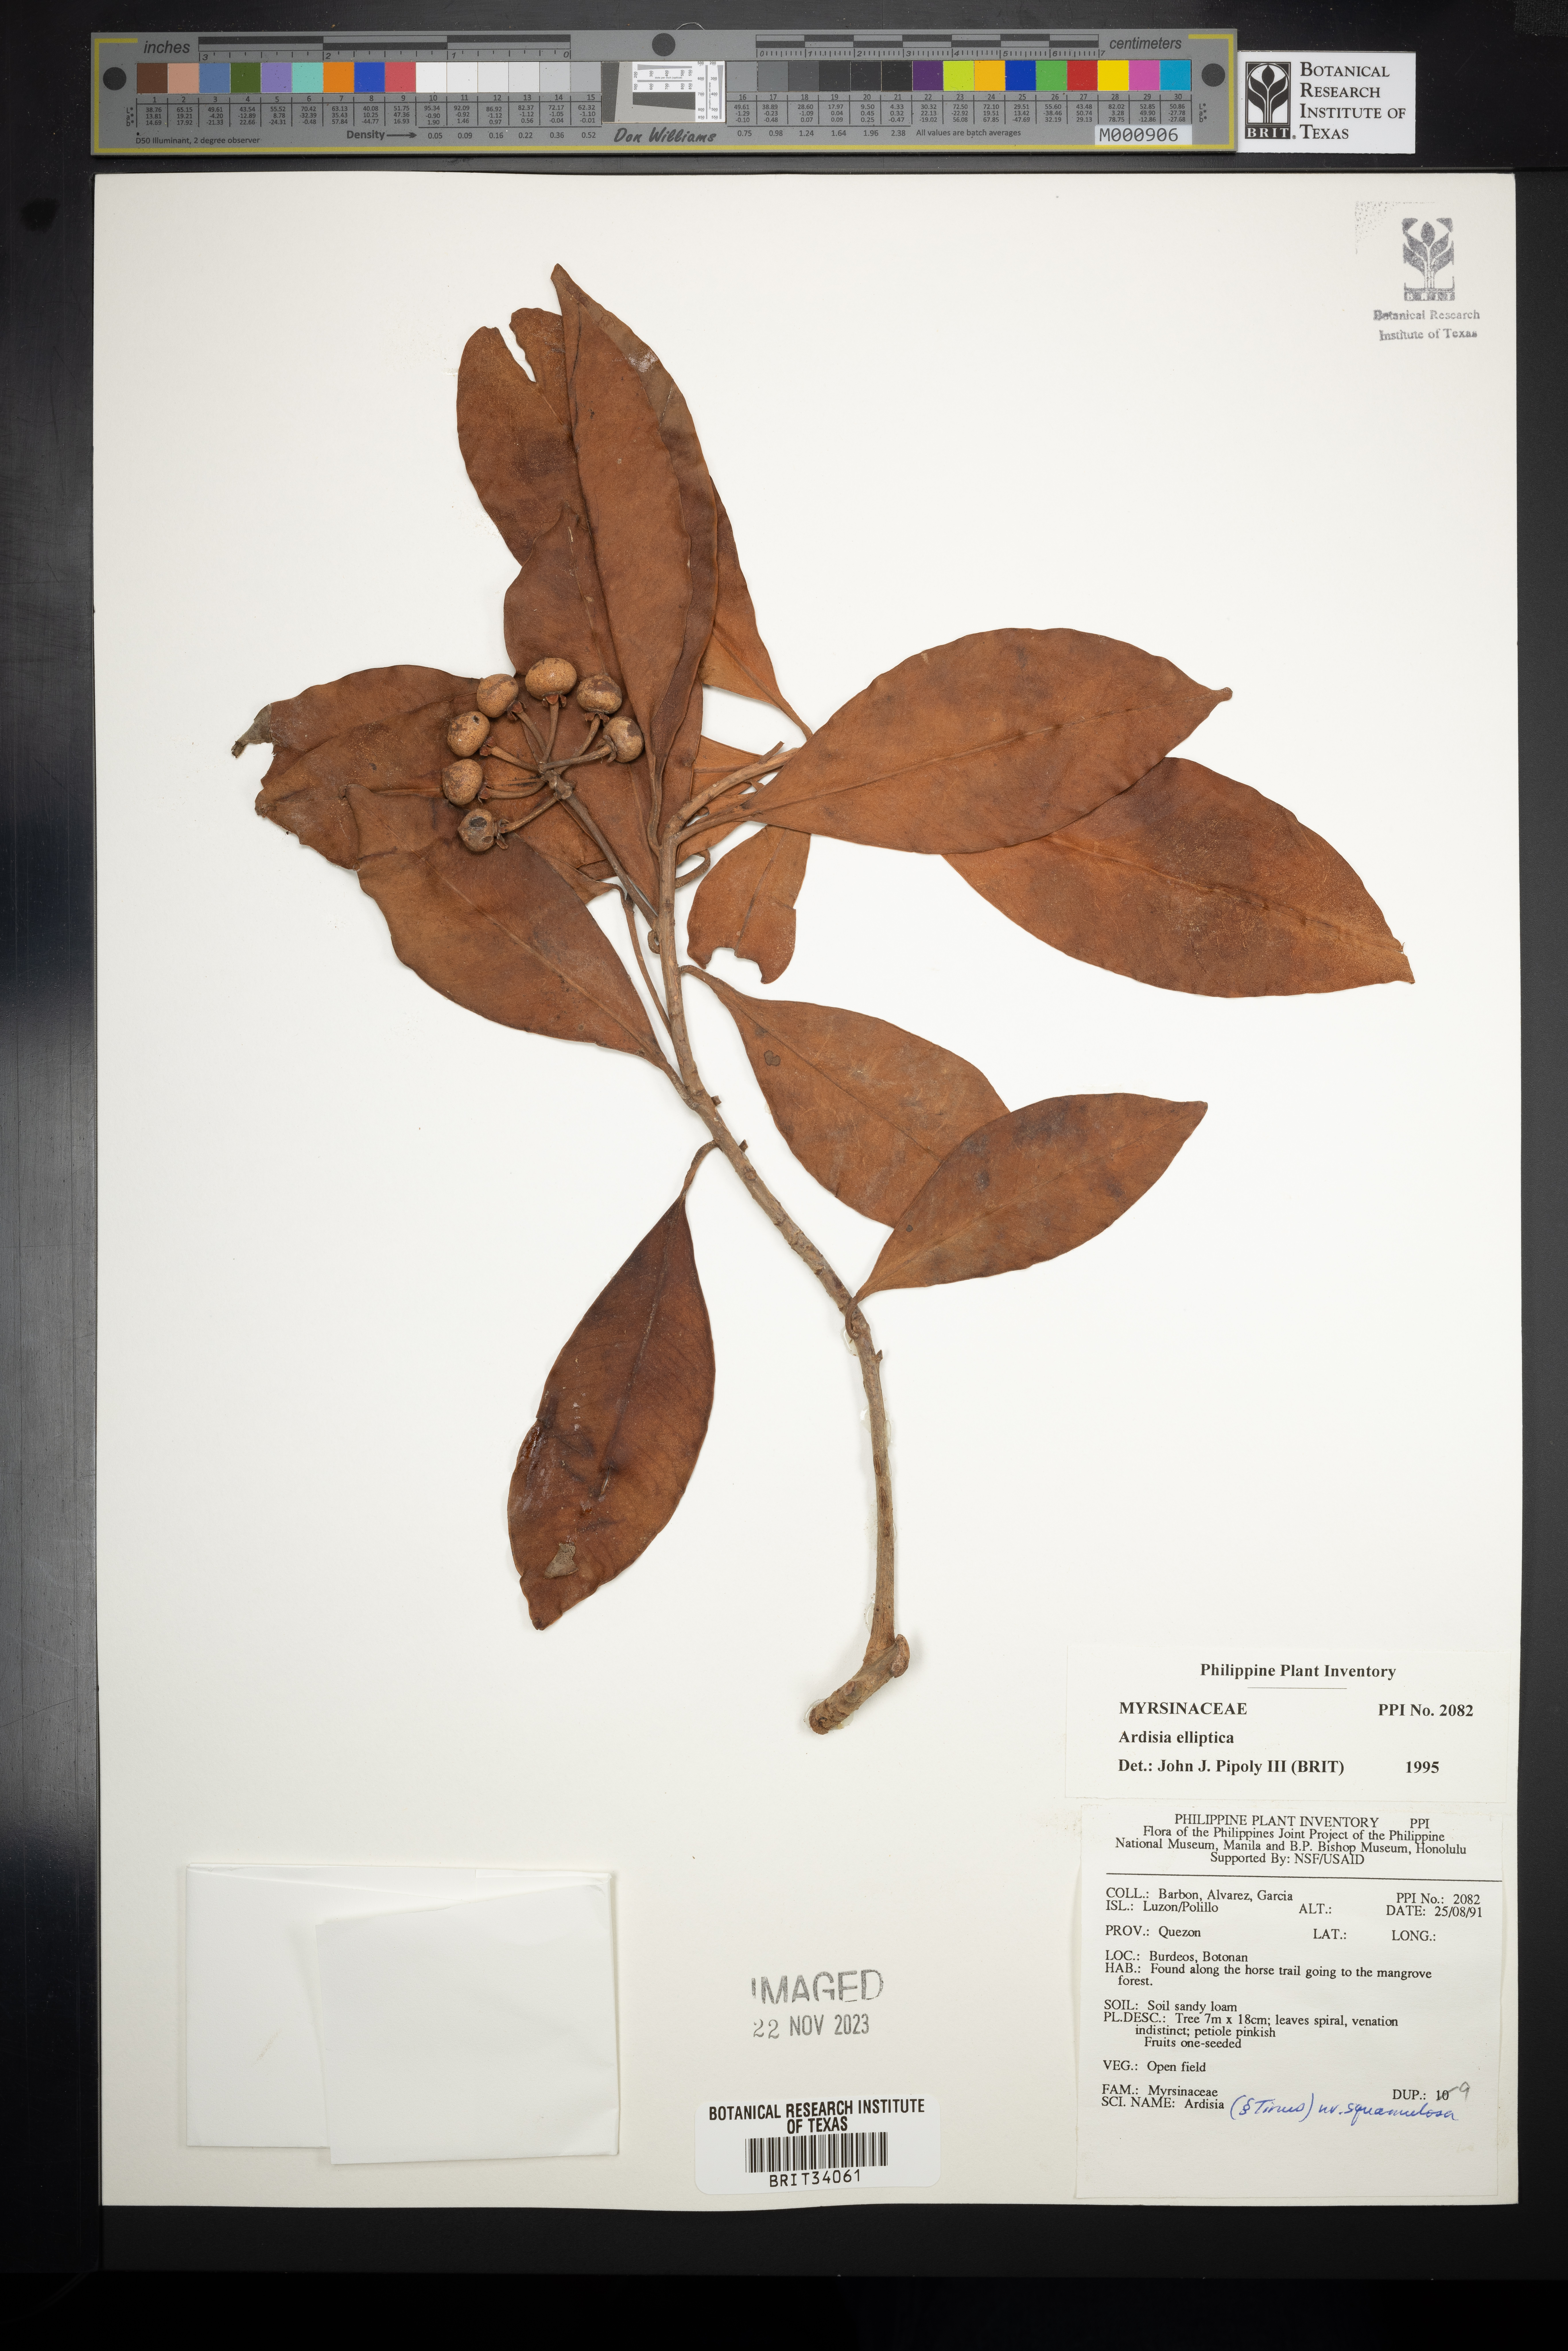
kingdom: Plantae
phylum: Tracheophyta
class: Magnoliopsida
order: Ericales
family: Primulaceae
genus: Ardisia
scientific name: Ardisia elliptica
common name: Shoebutton
